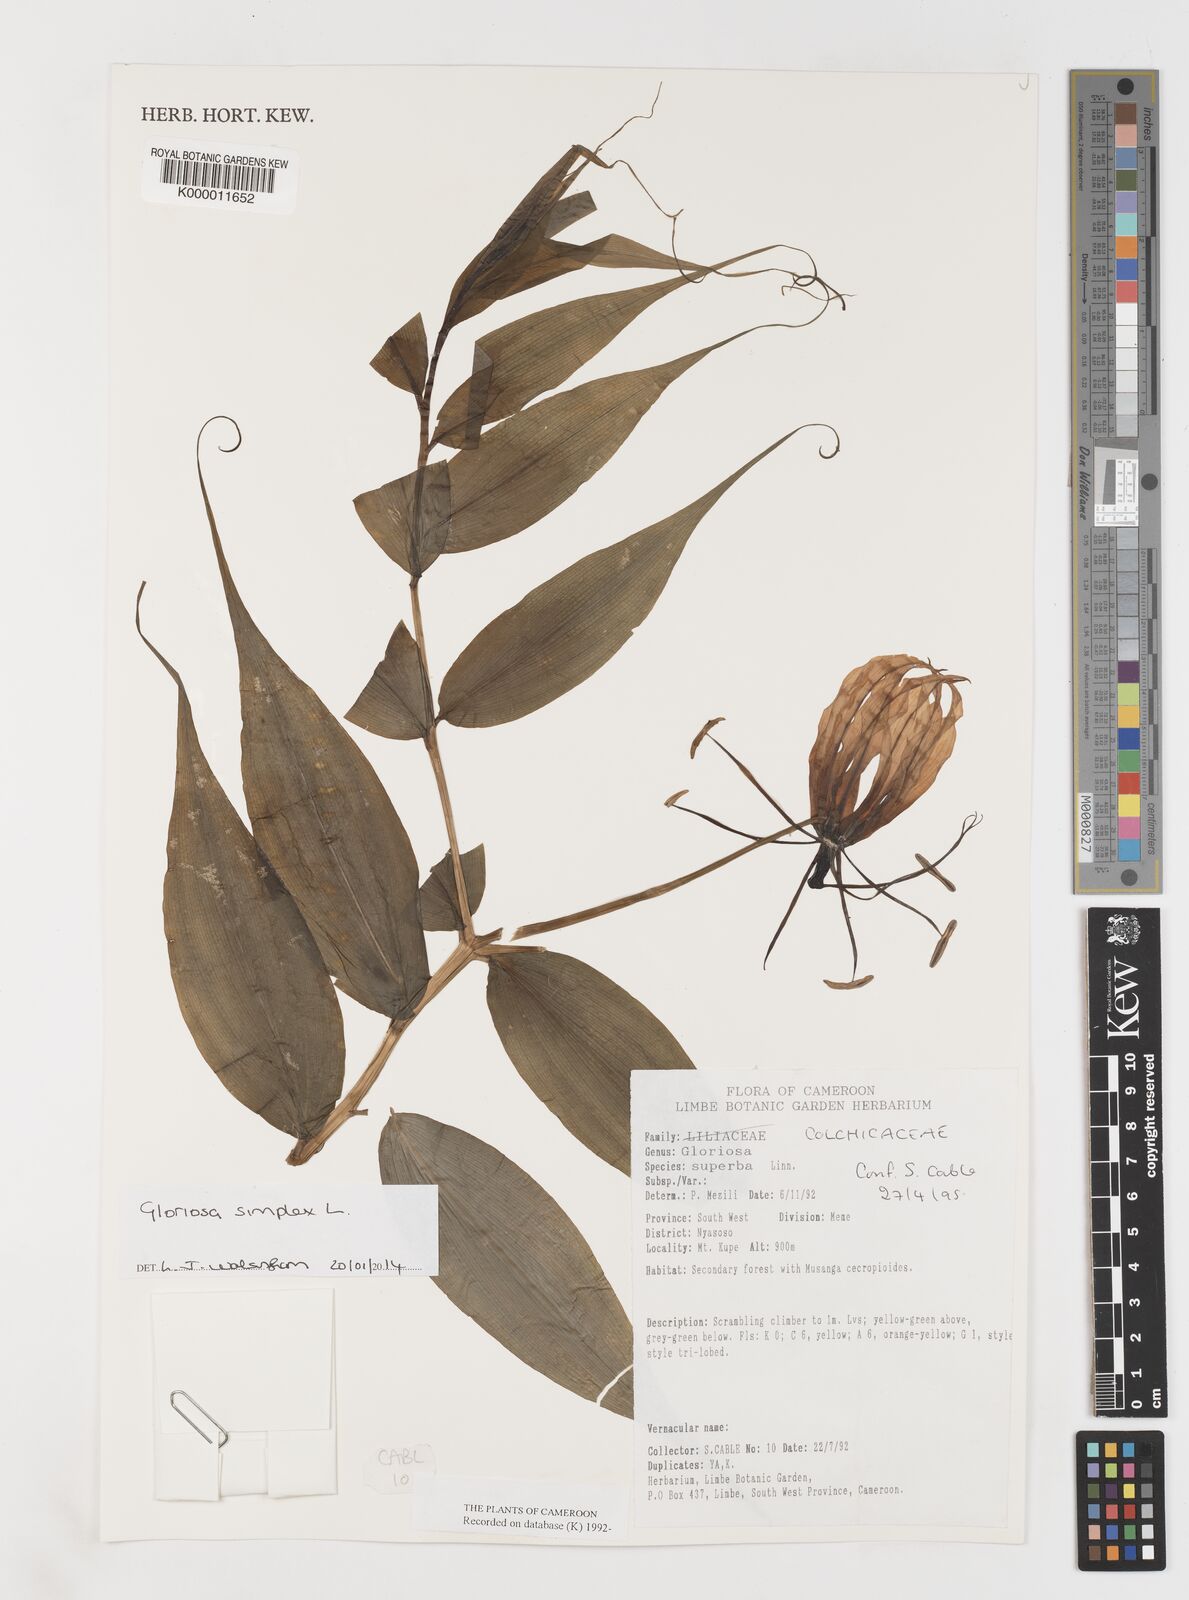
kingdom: Plantae
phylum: Tracheophyta
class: Liliopsida
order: Liliales
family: Colchicaceae
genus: Gloriosa
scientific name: Gloriosa superba
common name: Flame lily
